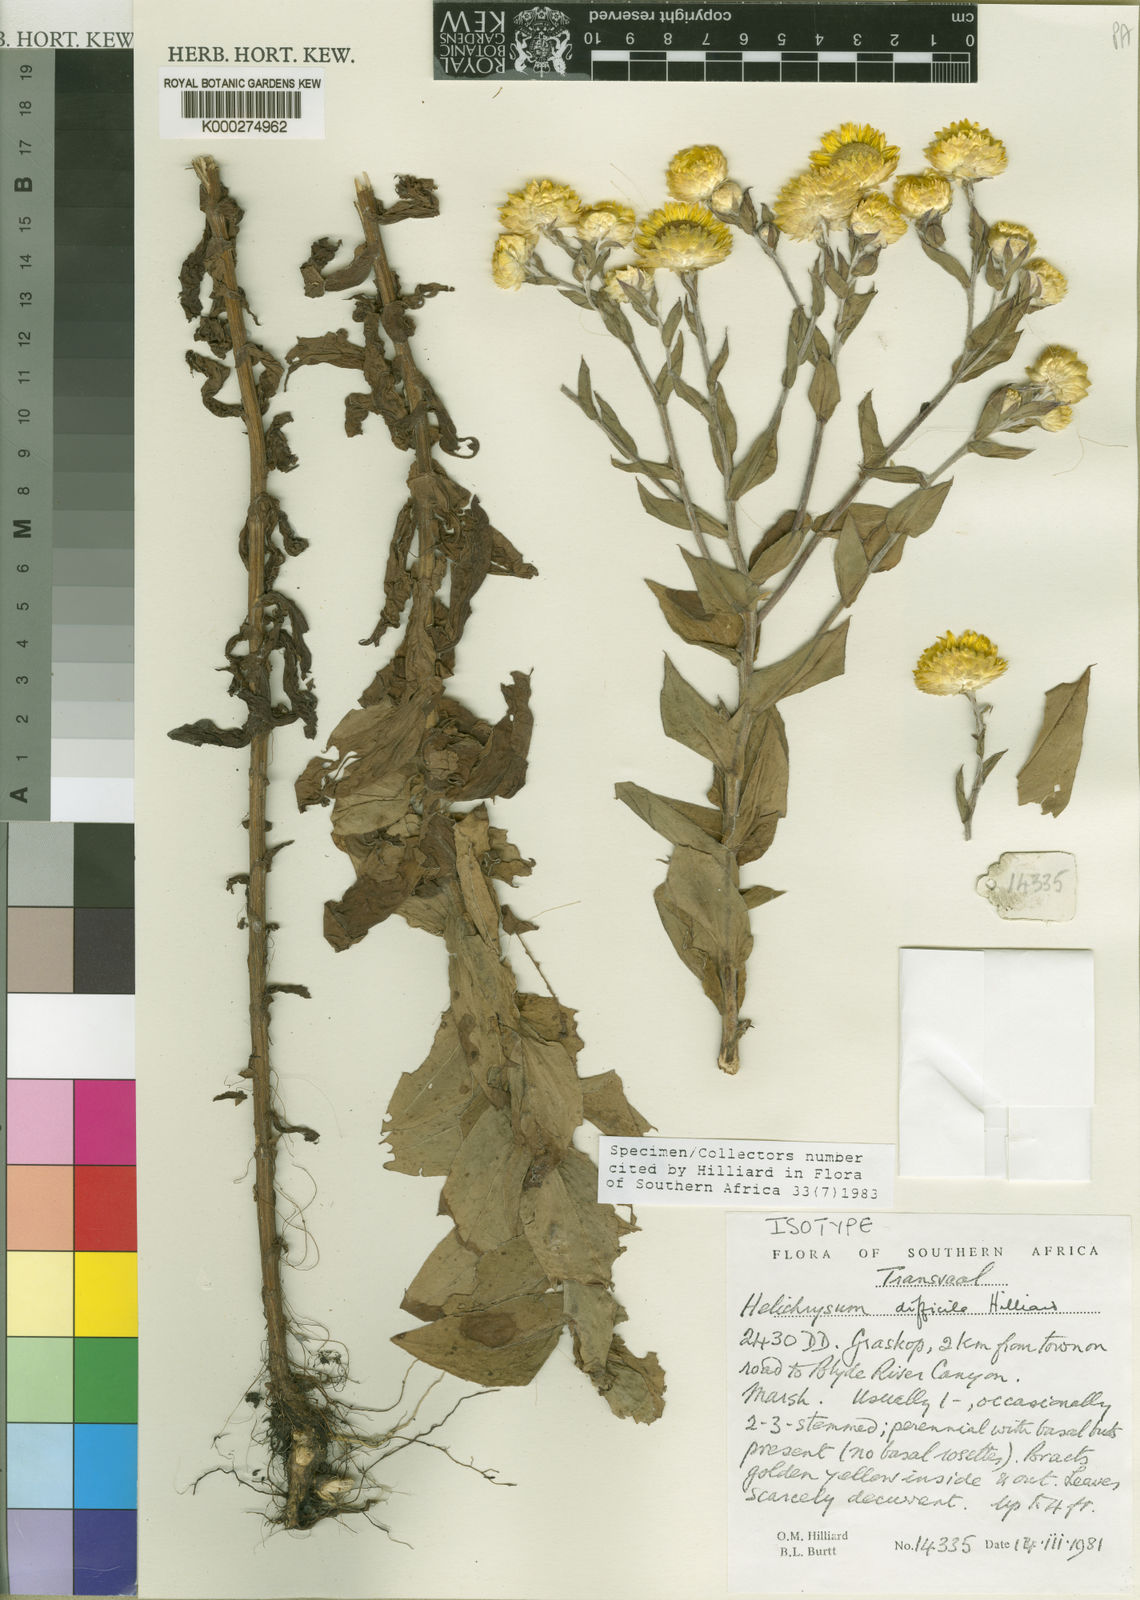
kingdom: Plantae
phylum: Tracheophyta
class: Magnoliopsida
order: Asterales
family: Asteraceae
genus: Helichrysum
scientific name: Helichrysum difficile
